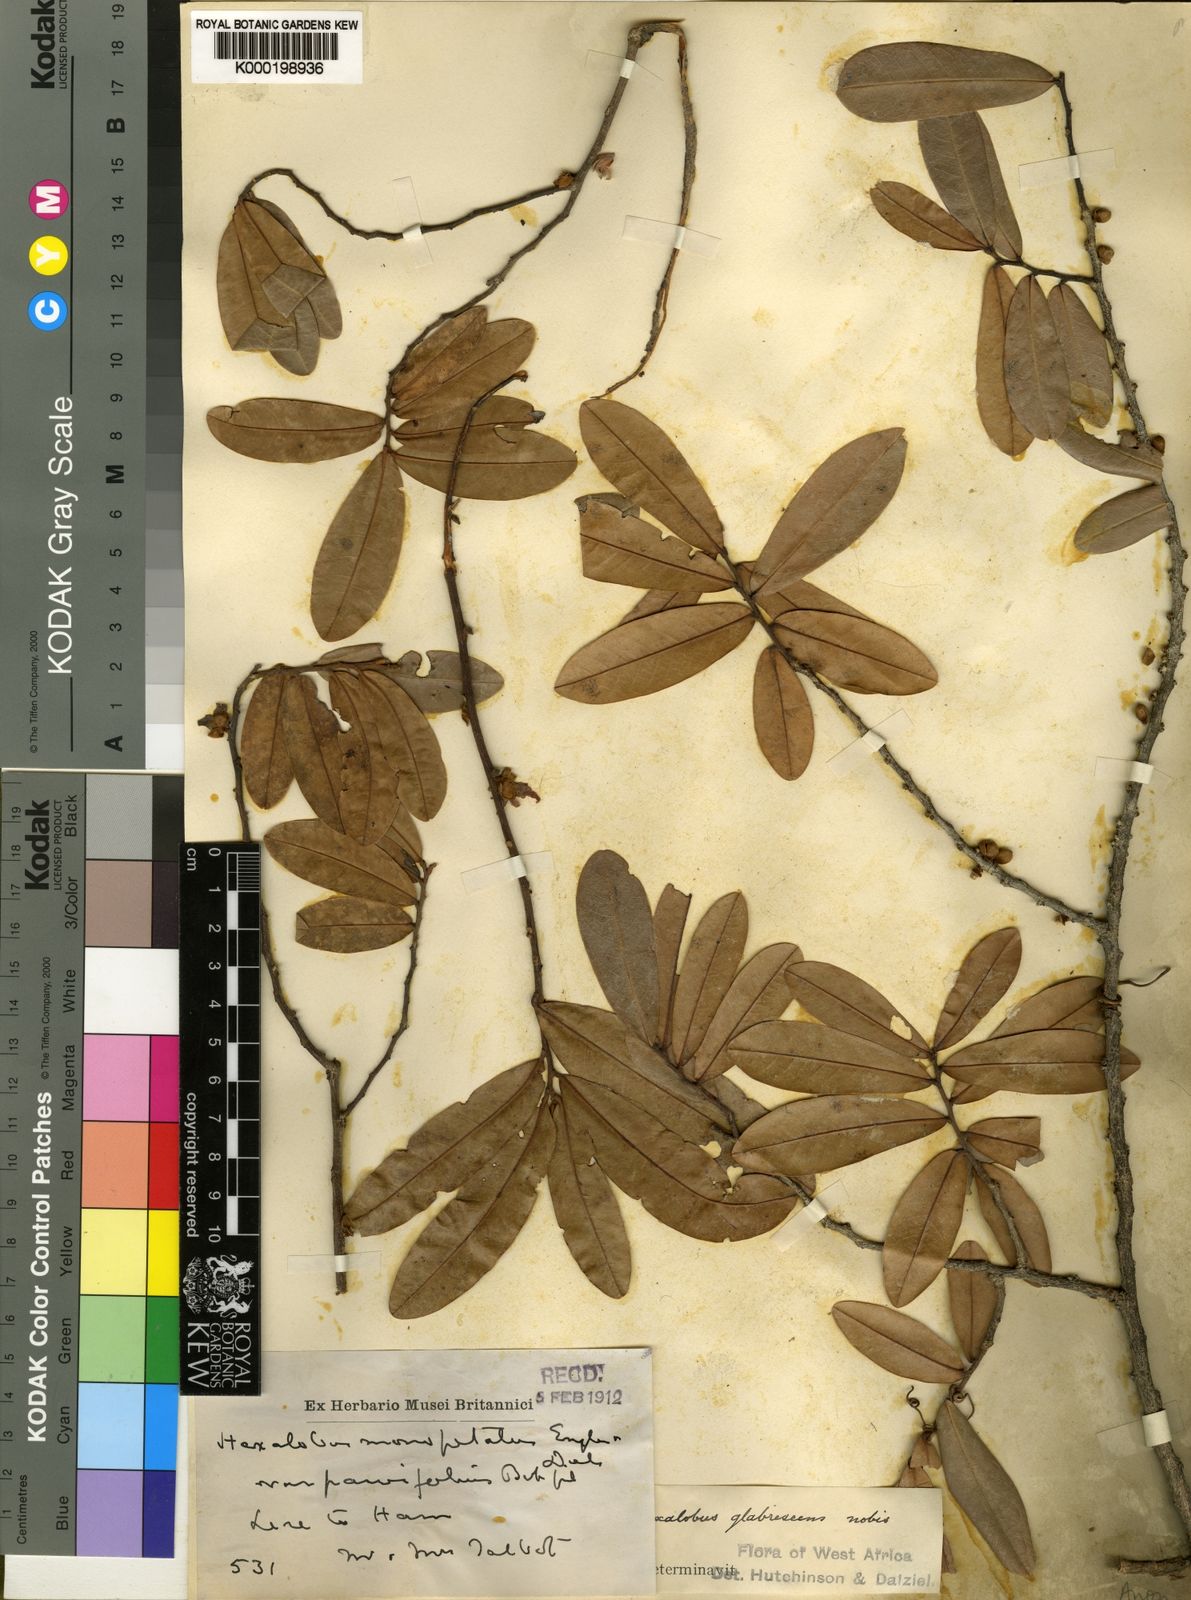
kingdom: Plantae
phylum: Tracheophyta
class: Magnoliopsida
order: Magnoliales
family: Annonaceae
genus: Hexalobus
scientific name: Hexalobus monopetalus
